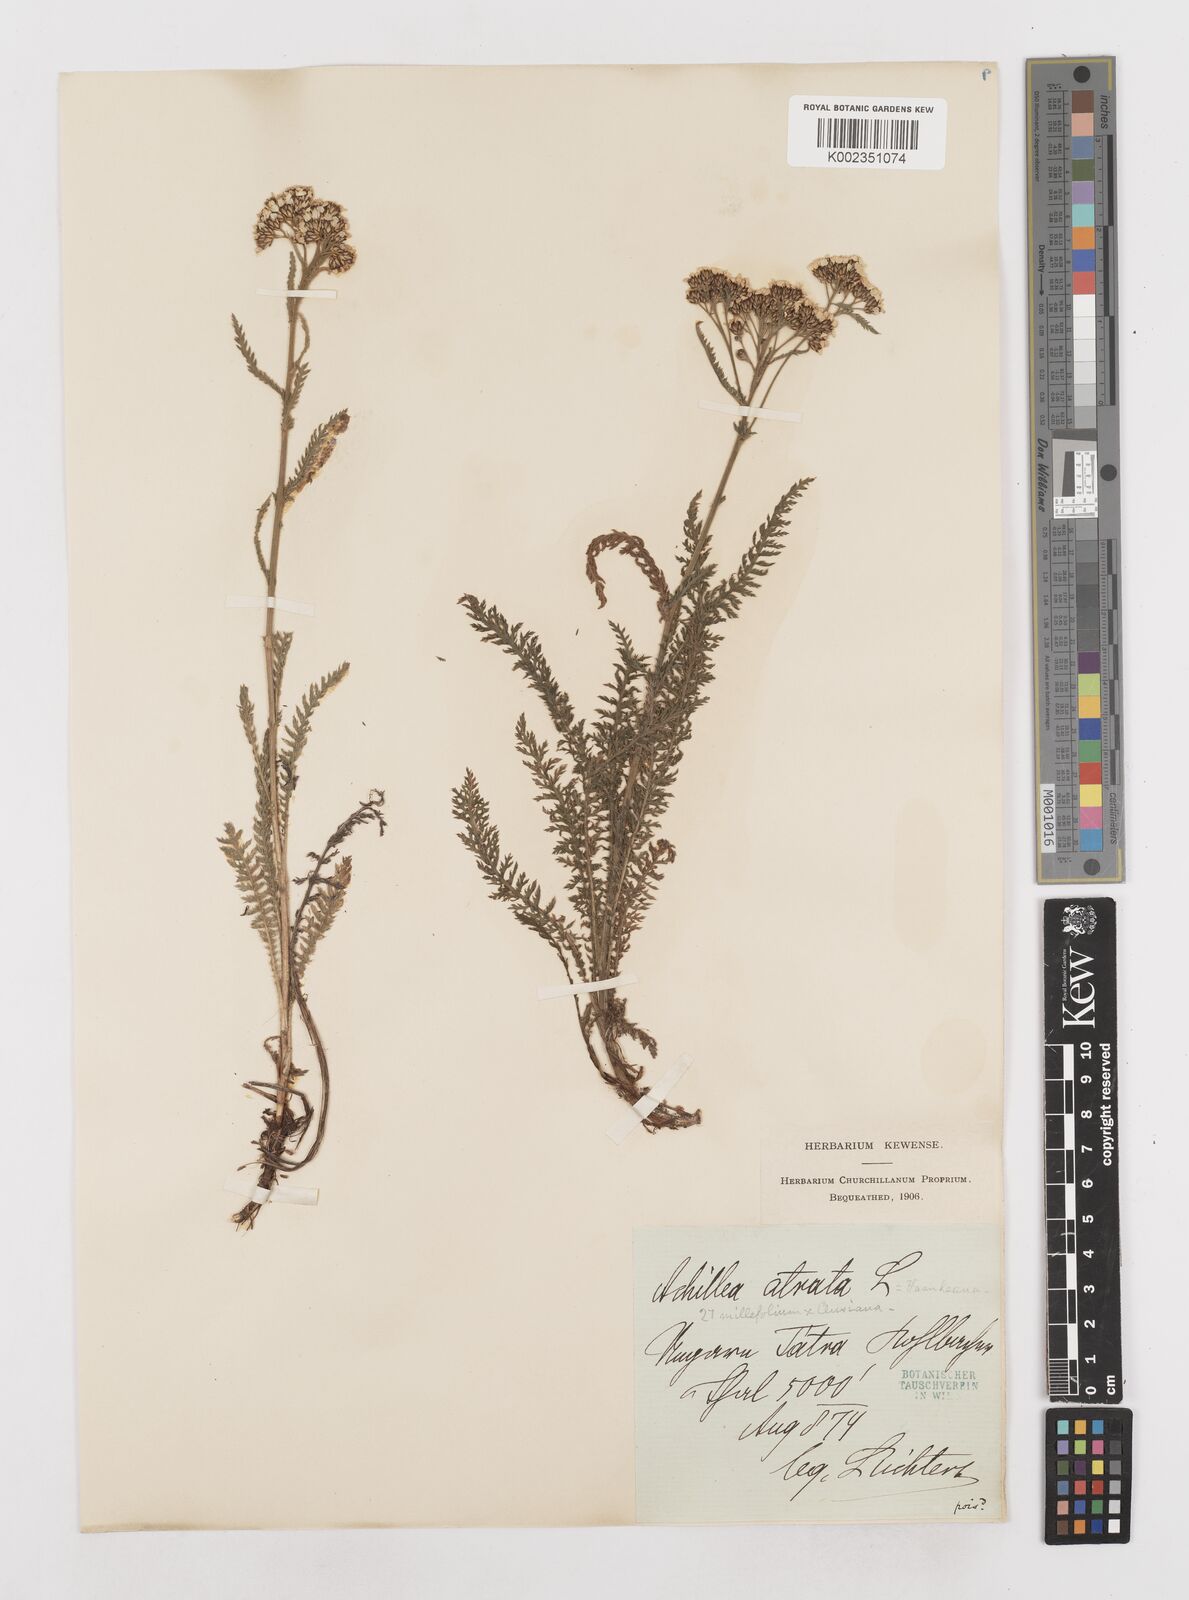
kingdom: Plantae
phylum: Tracheophyta
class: Magnoliopsida
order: Asterales
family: Asteraceae
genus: Achillea
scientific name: Achillea millefolium
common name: Yarrow
